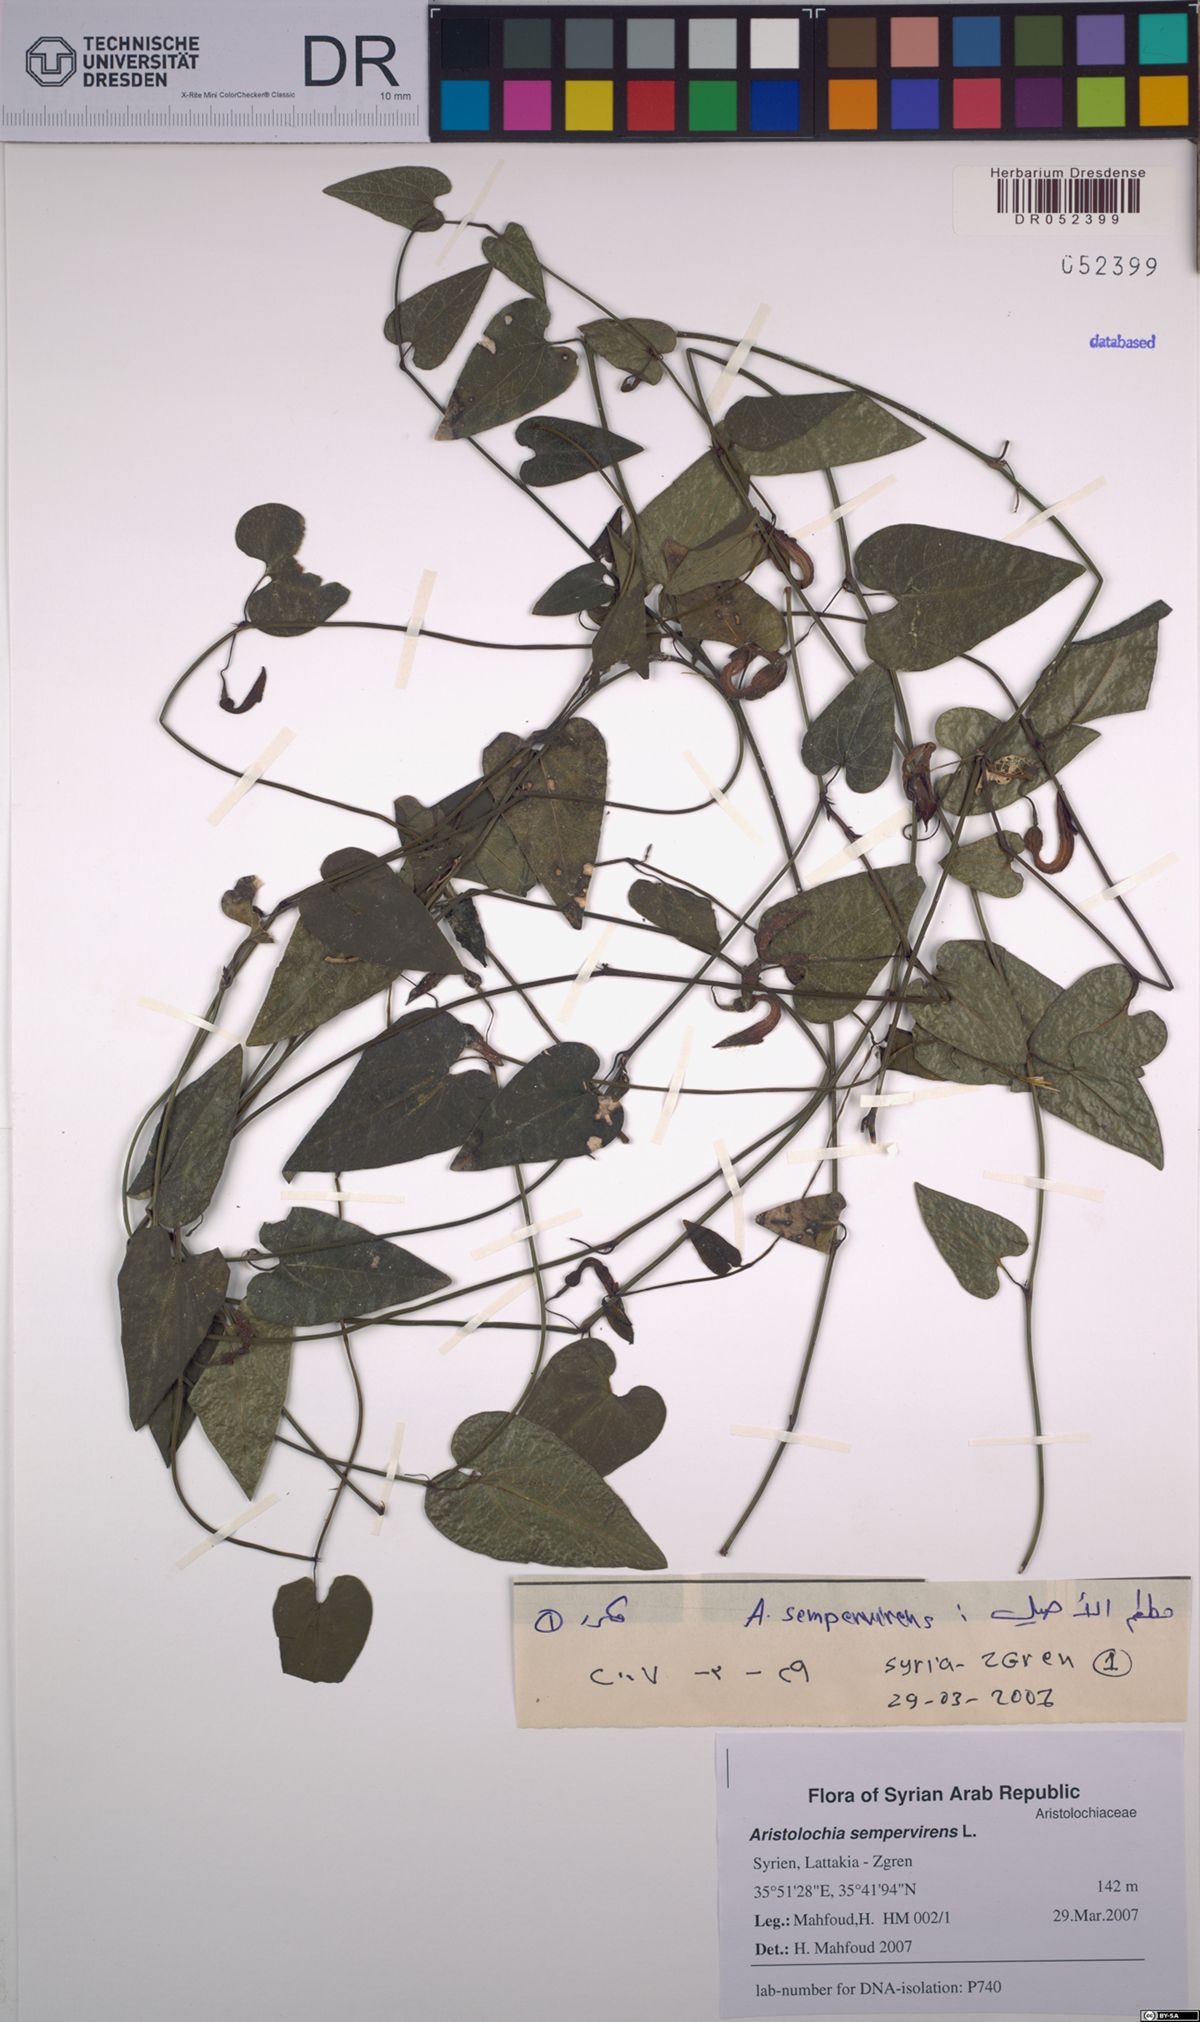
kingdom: Plantae
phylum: Tracheophyta
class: Magnoliopsida
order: Piperales
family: Aristolochiaceae
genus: Aristolochia
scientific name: Aristolochia sempervirens
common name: Long birthwort
